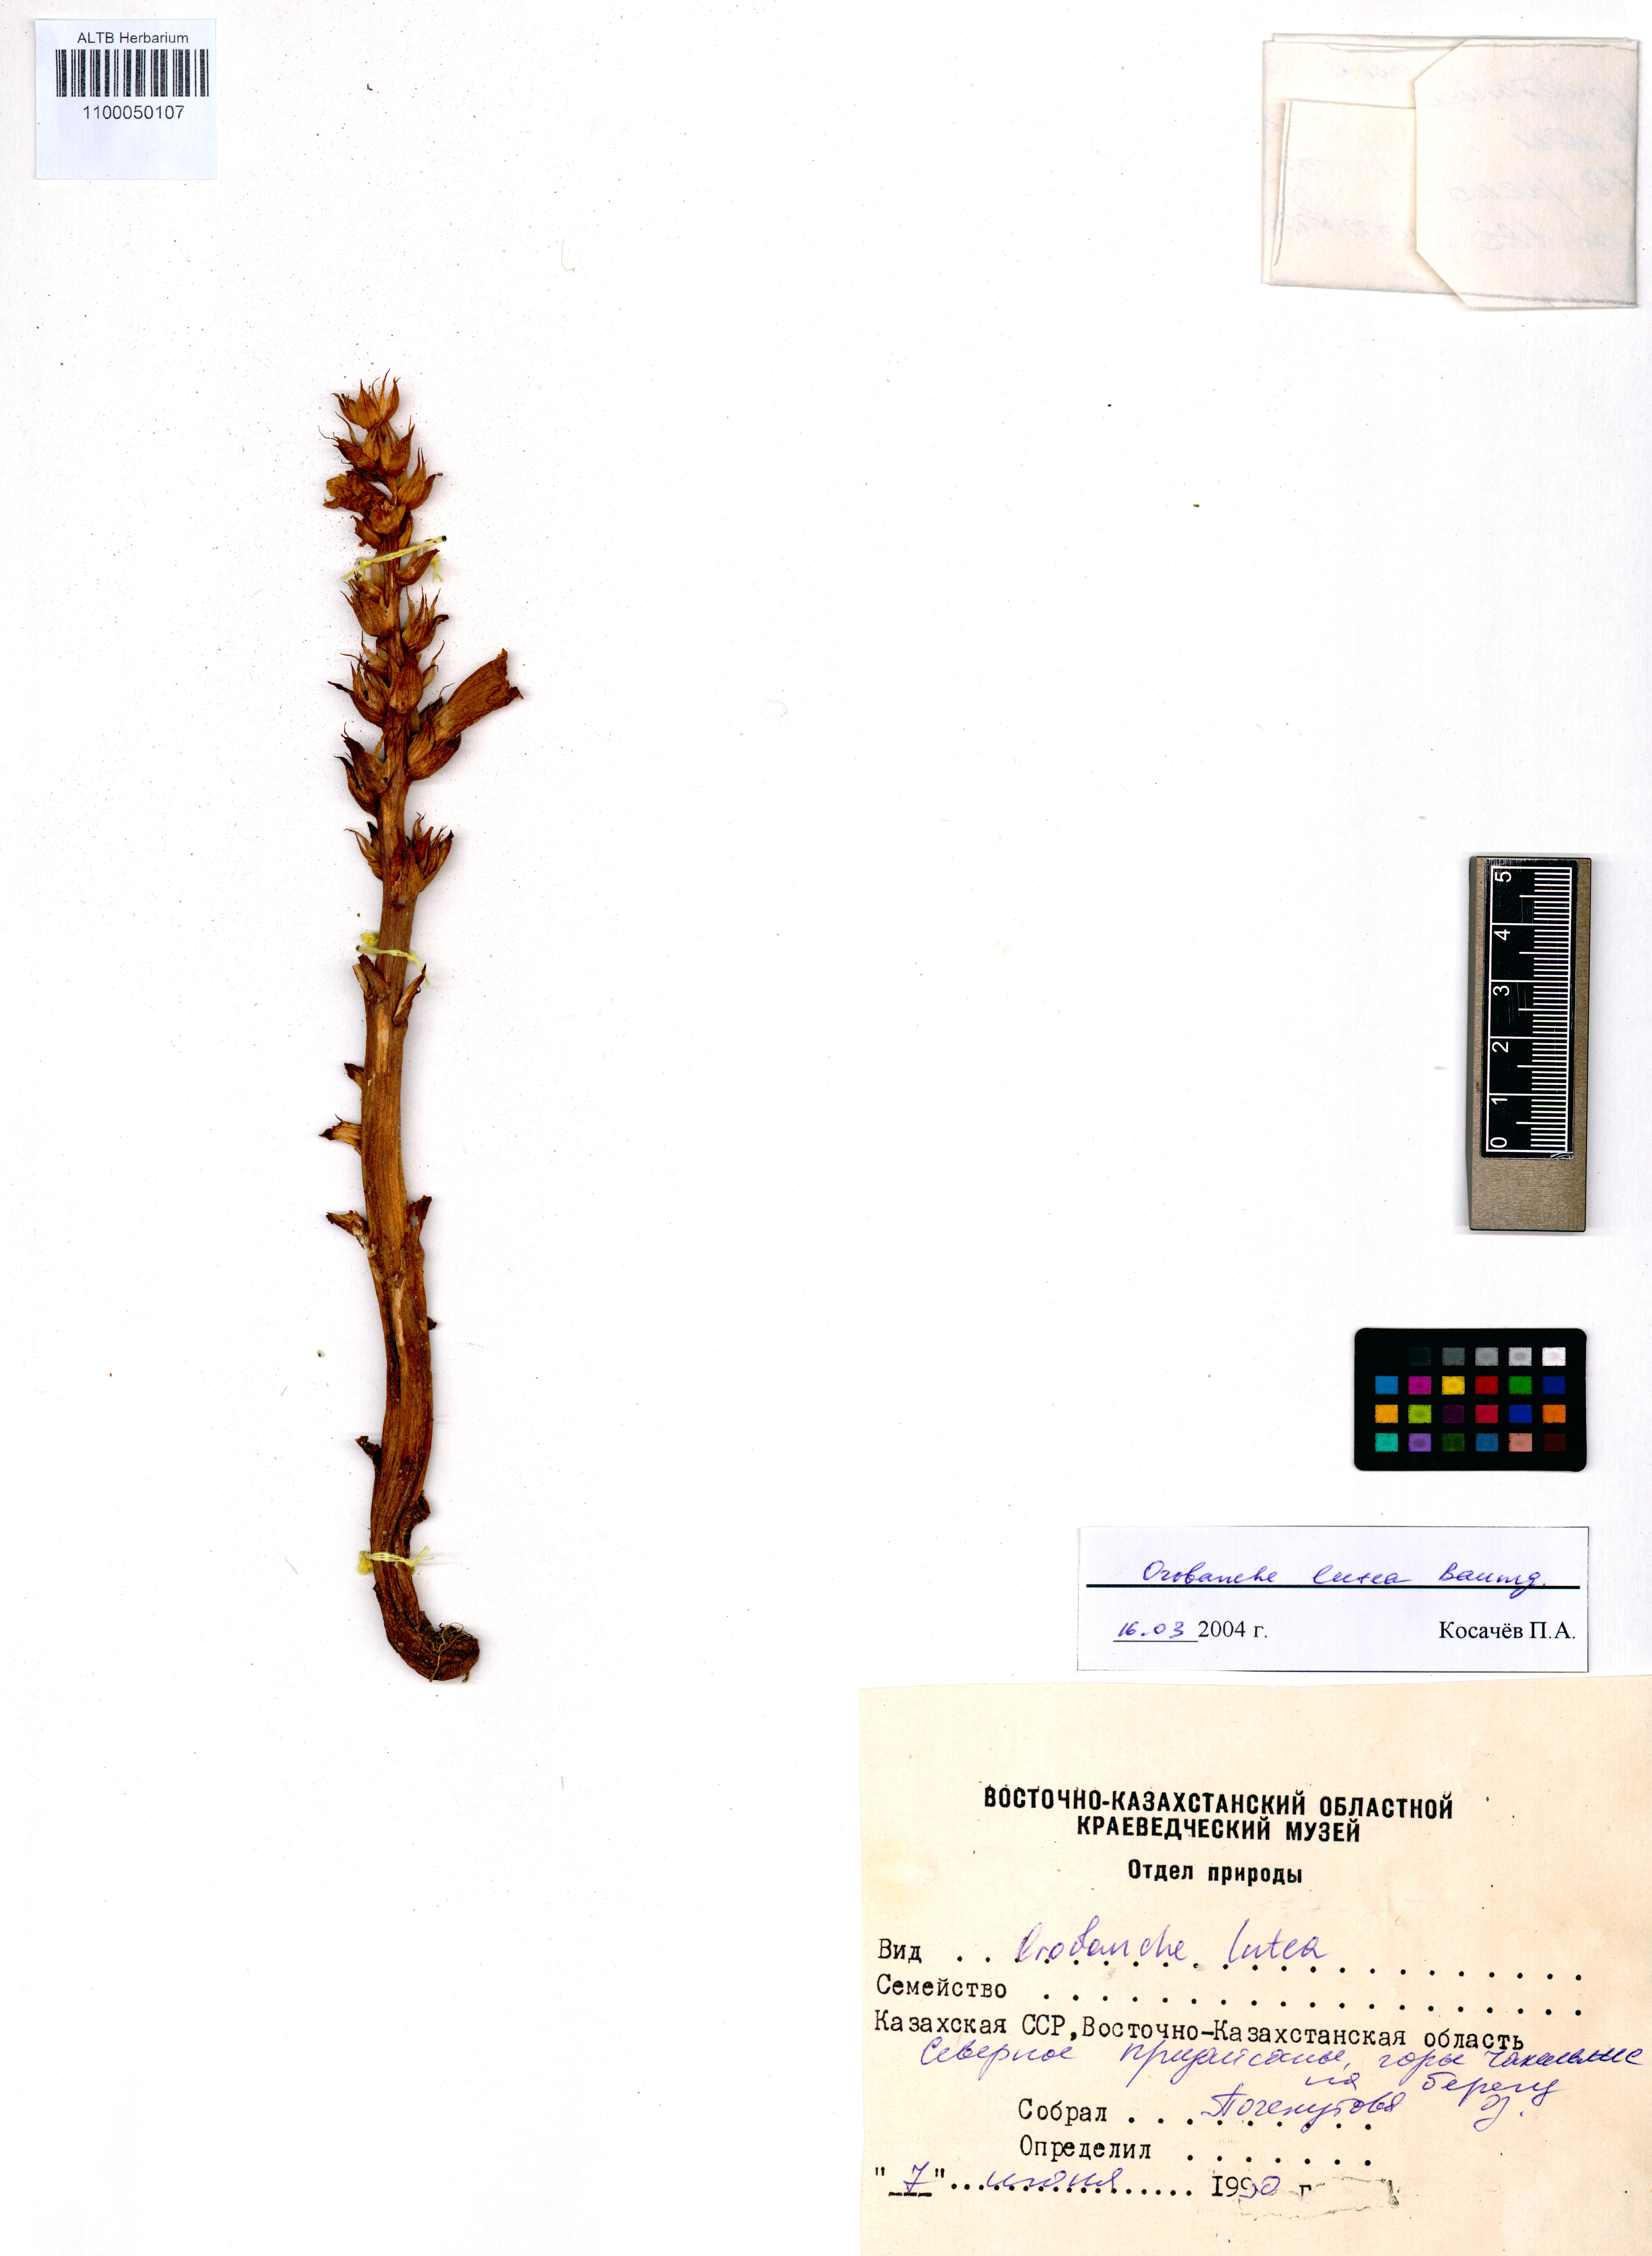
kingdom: Plantae
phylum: Tracheophyta
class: Magnoliopsida
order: Lamiales
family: Orobanchaceae
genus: Orobanche
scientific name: Orobanche lutea
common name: Yellow broomrape
